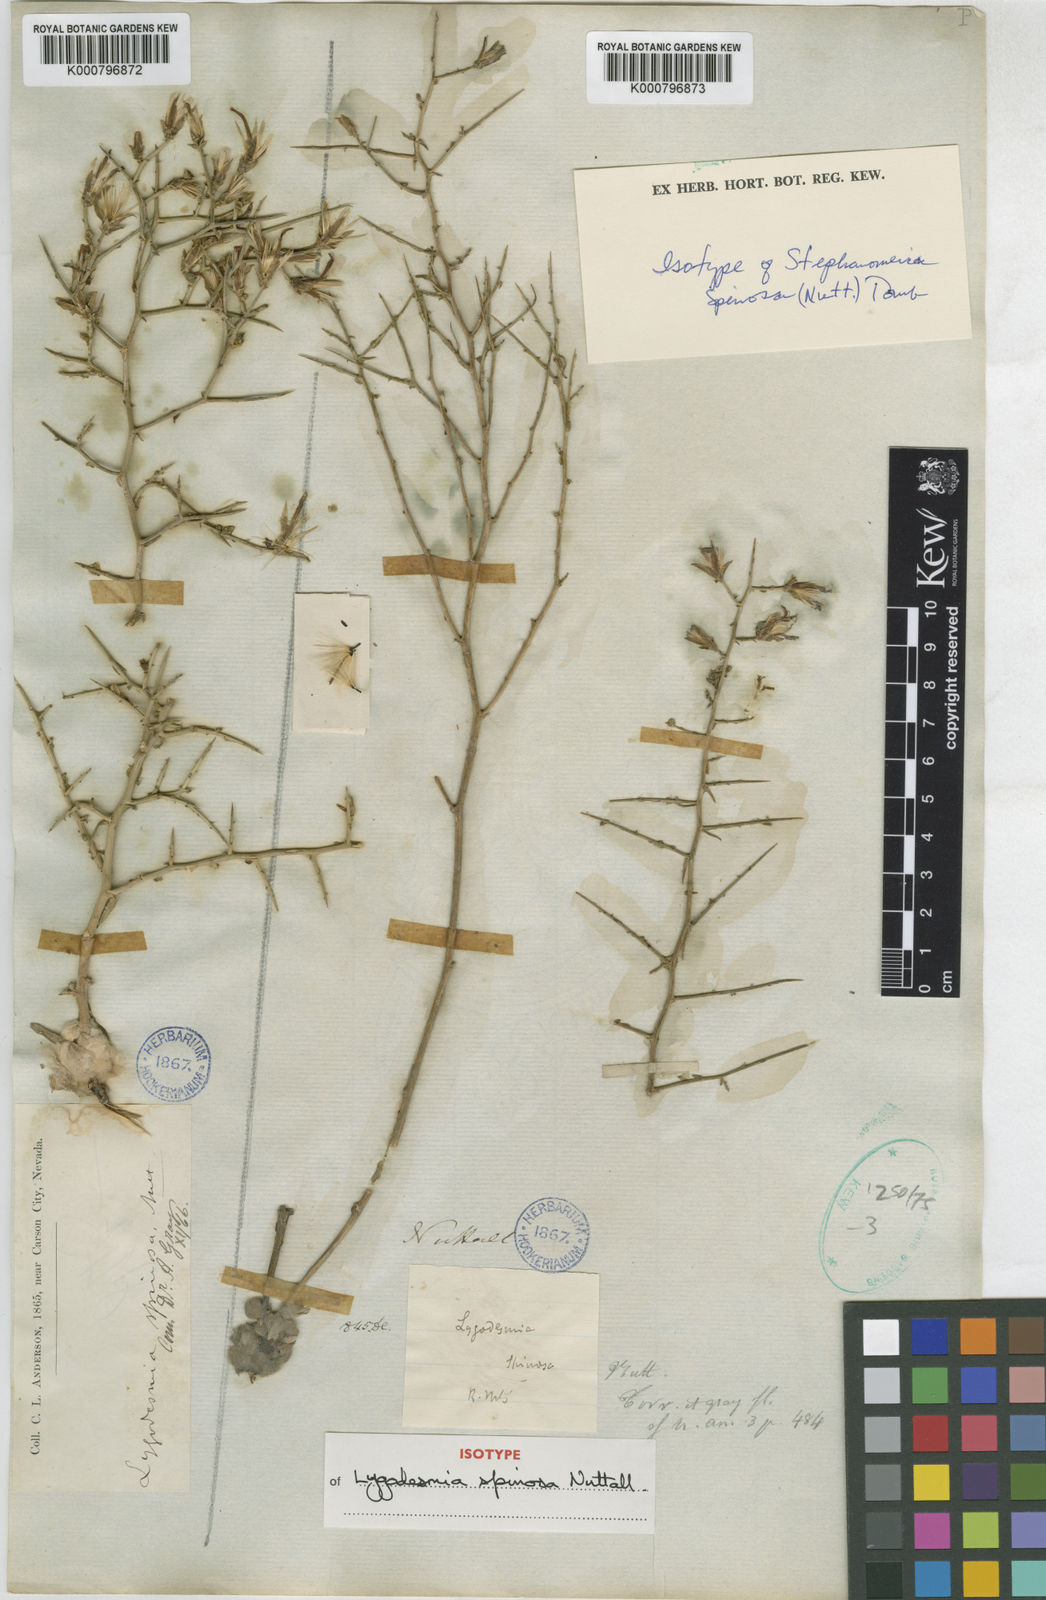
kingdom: Plantae
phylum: Tracheophyta
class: Magnoliopsida
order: Asterales
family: Asteraceae
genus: Pleiacanthus
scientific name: Pleiacanthus spinosus
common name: Thorny skeleton-weed
